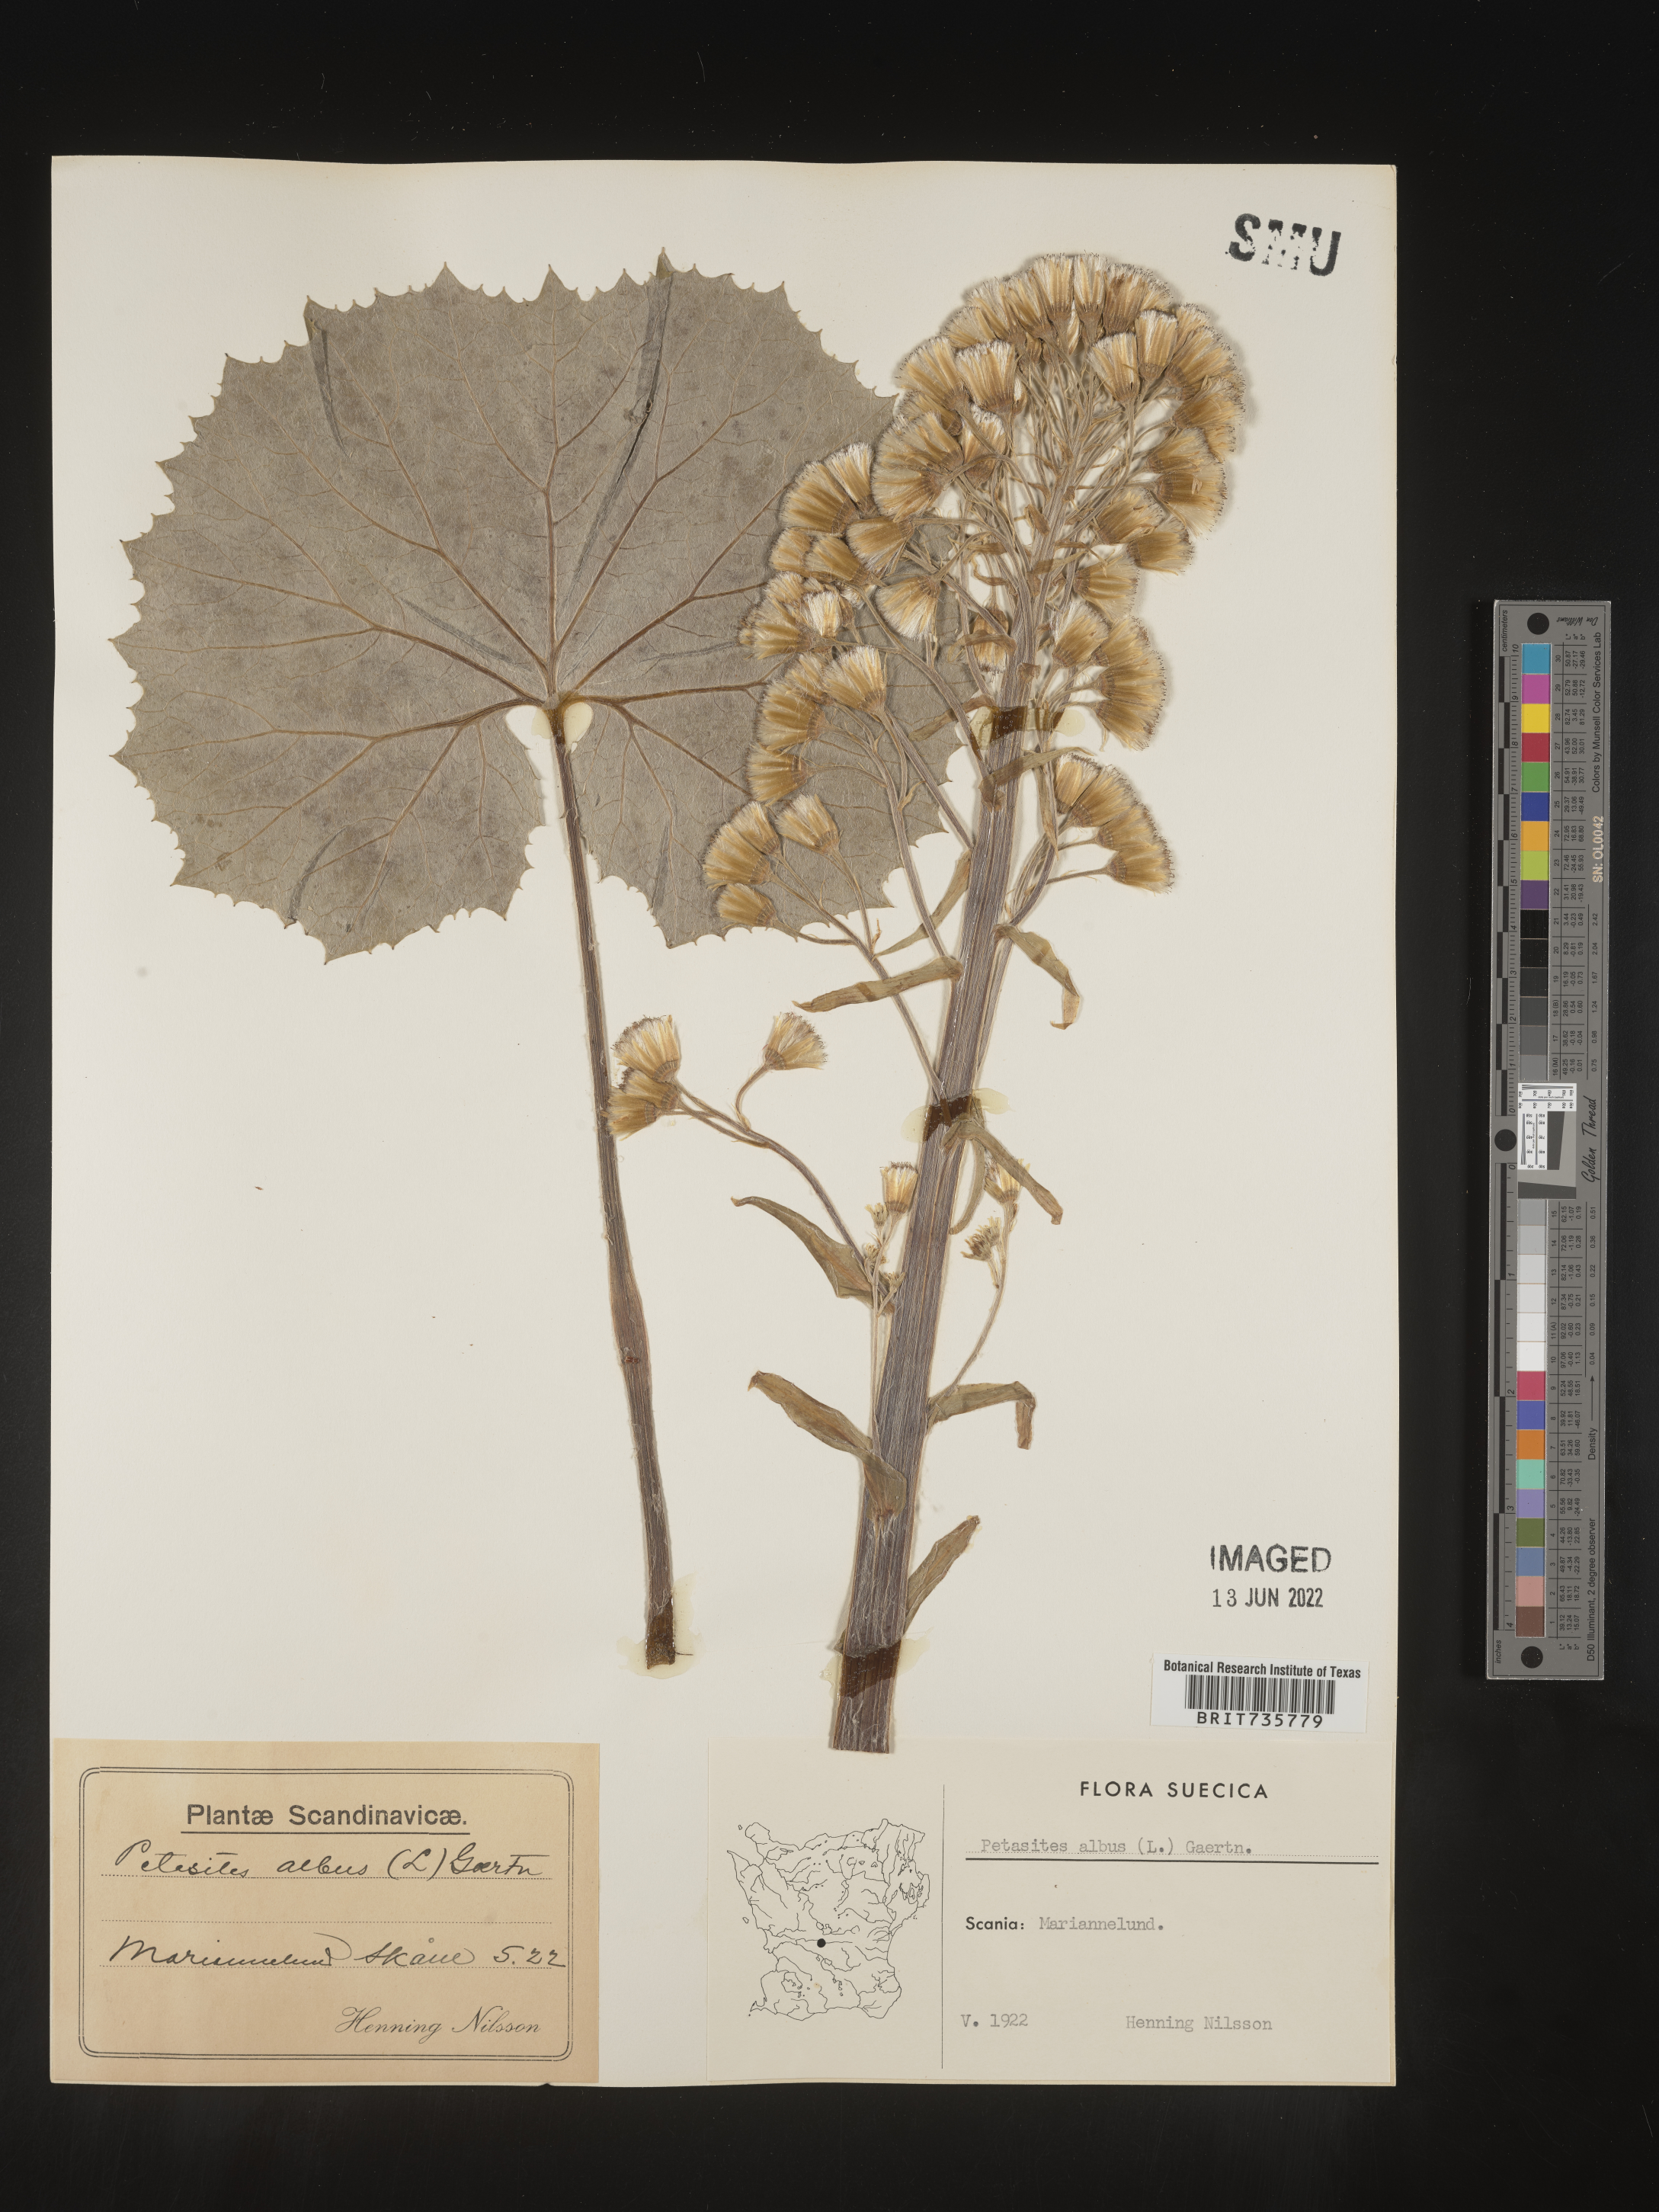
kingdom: Plantae
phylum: Tracheophyta
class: Magnoliopsida
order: Asterales
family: Asteraceae
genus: Petasites
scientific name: Petasites
